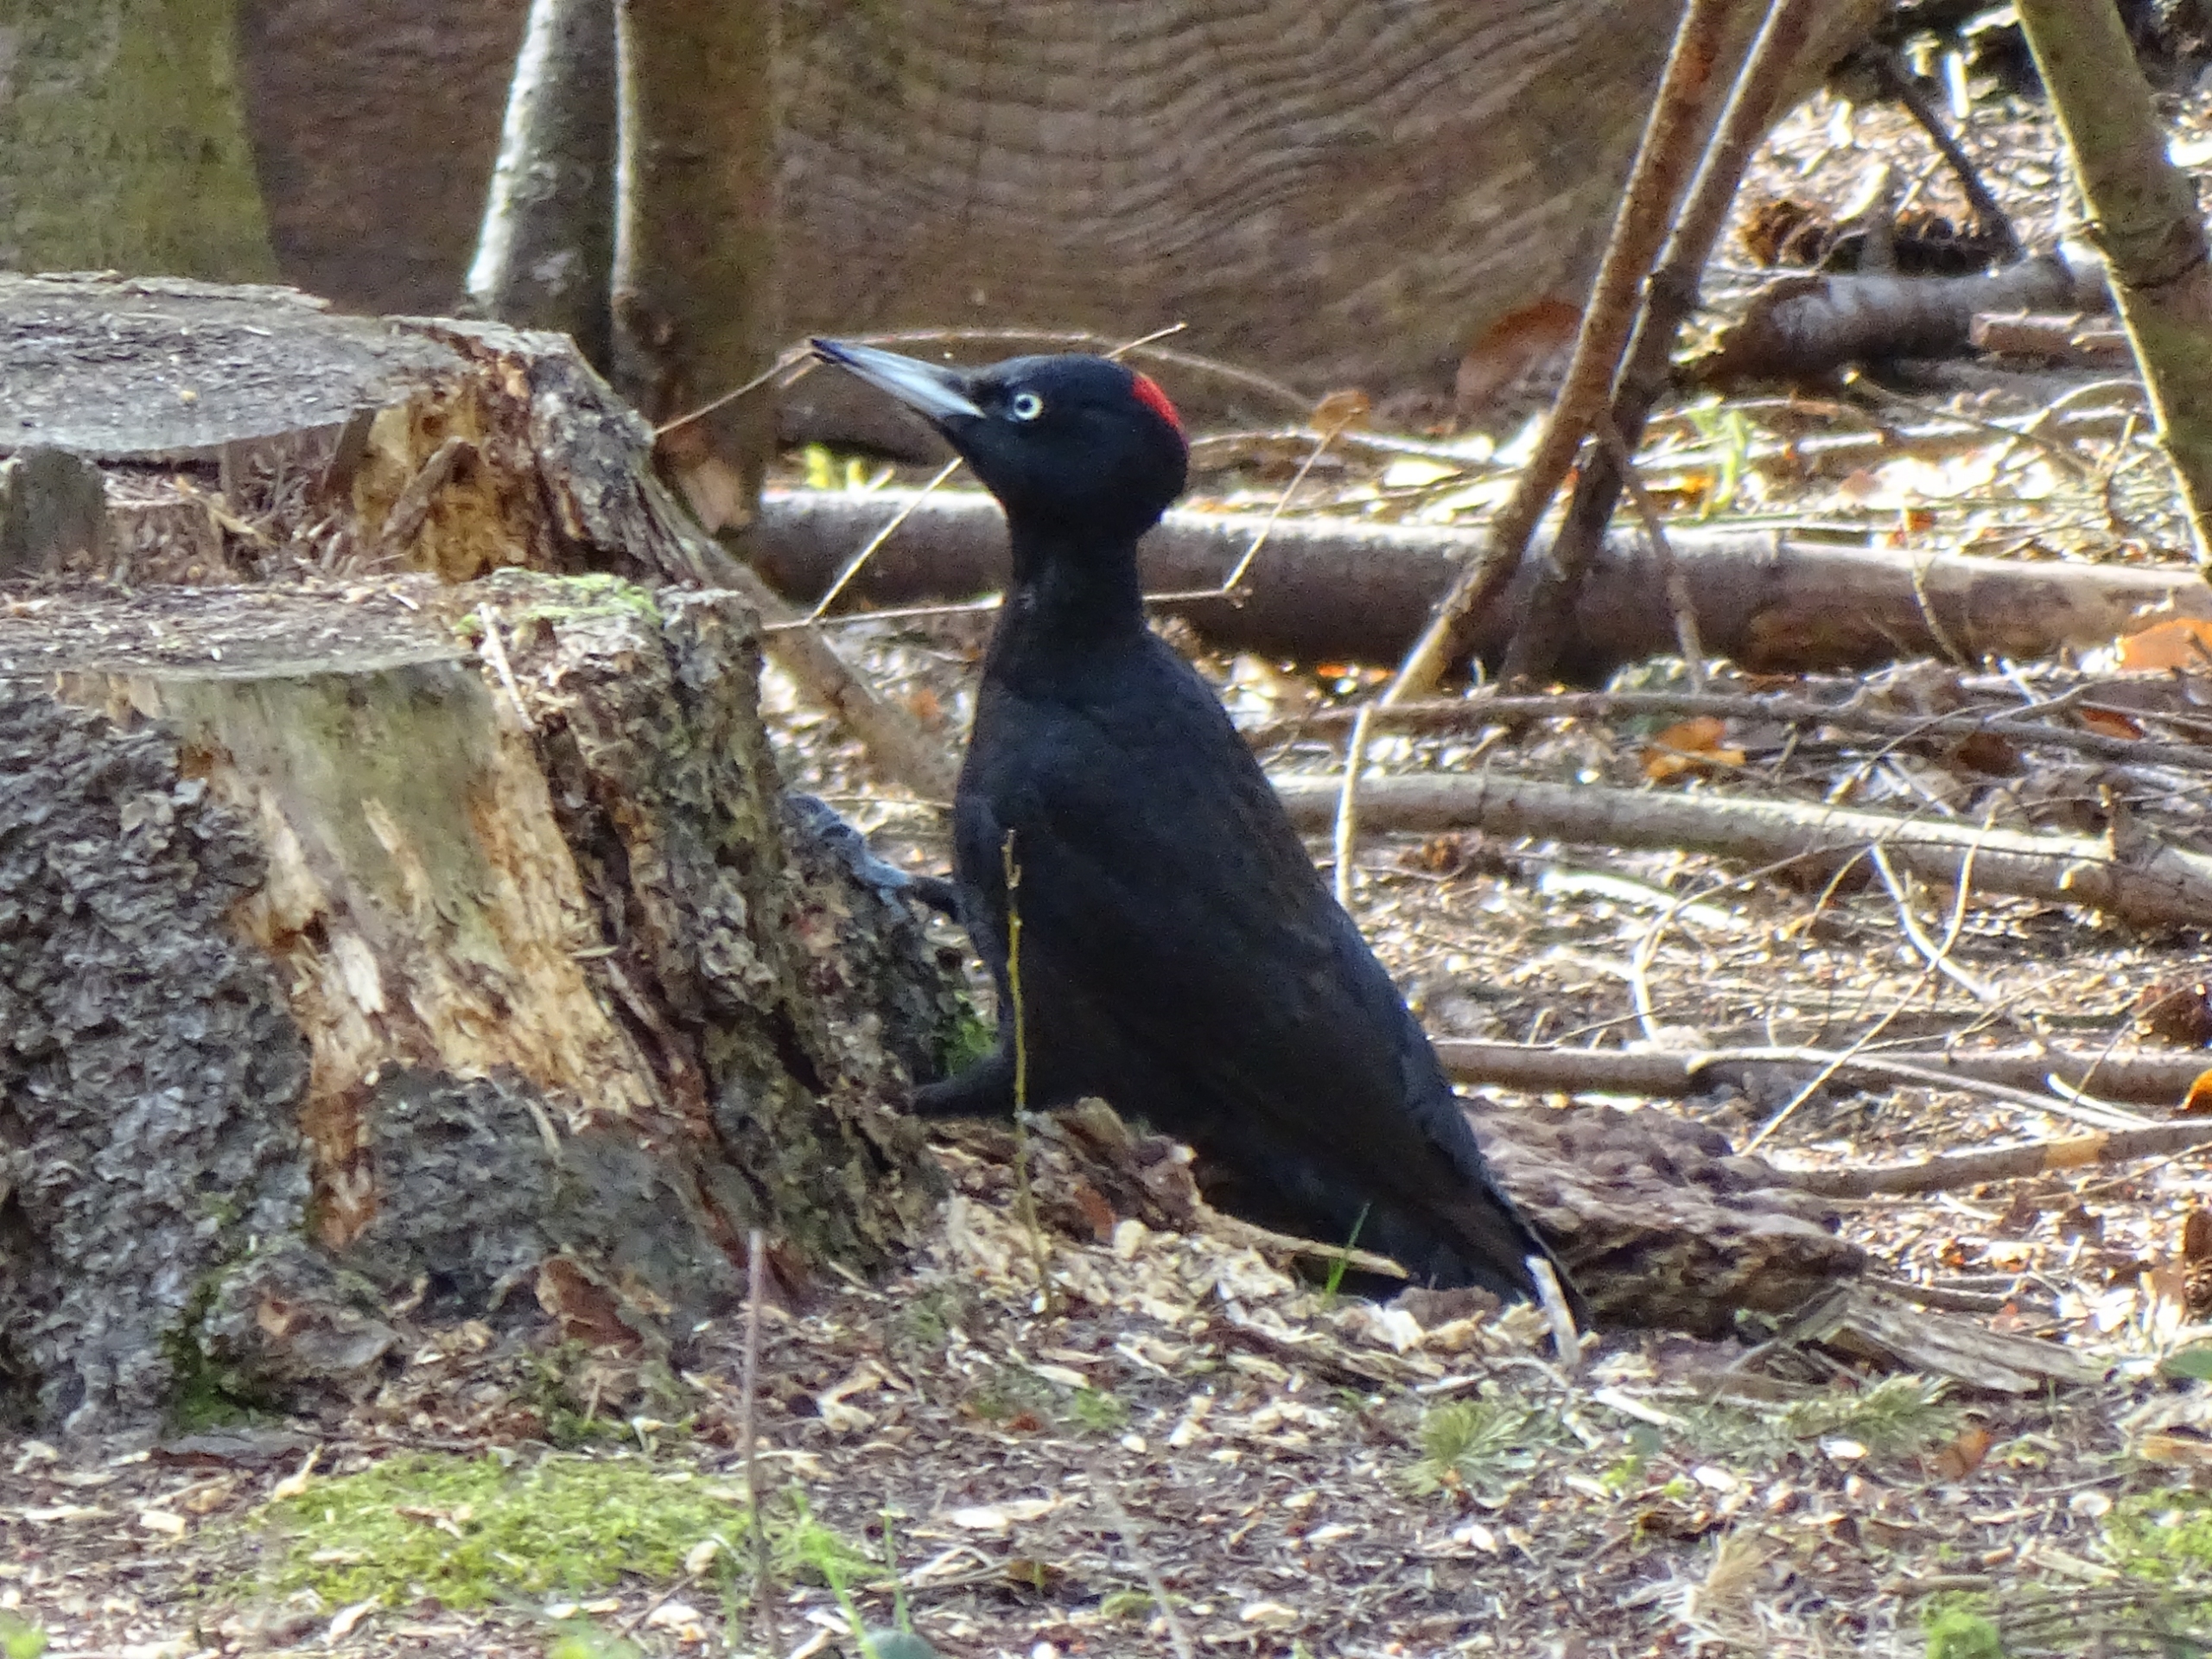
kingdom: Animalia
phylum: Chordata
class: Aves
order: Piciformes
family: Picidae
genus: Dryocopus
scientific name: Dryocopus martius
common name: Sortspætte
